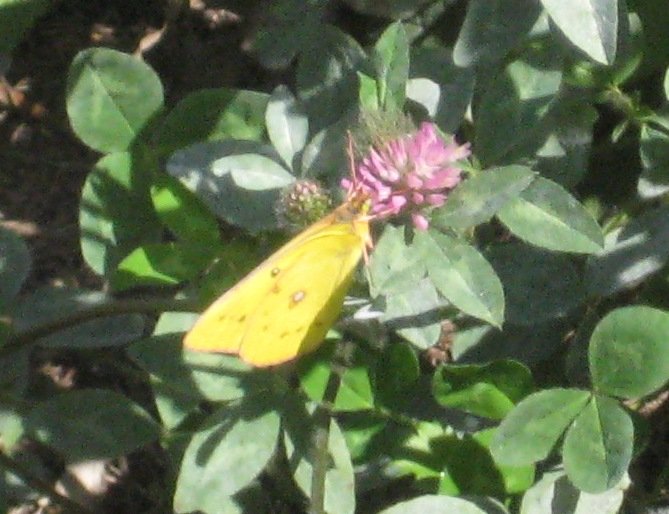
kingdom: Animalia
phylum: Arthropoda
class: Insecta
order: Lepidoptera
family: Pieridae
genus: Colias
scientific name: Colias eurytheme
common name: Orange Sulphur
